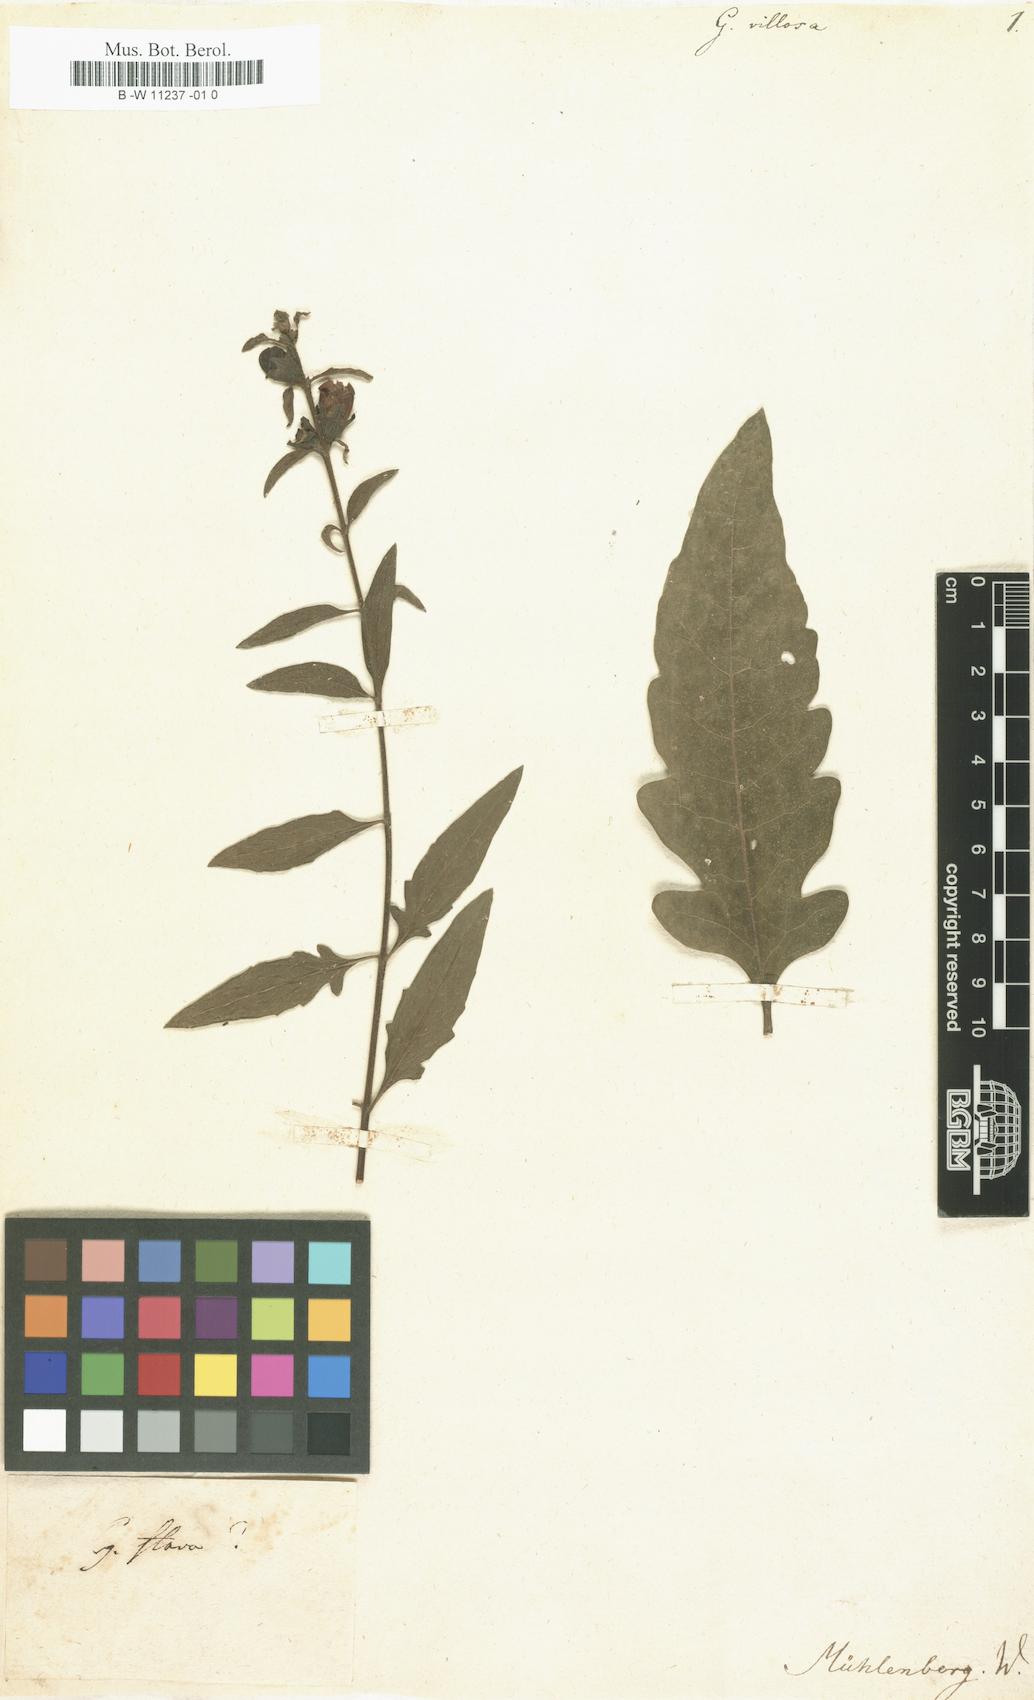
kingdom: Plantae
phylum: Tracheophyta
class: Magnoliopsida
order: Lamiales
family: Orobanchaceae
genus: Aureolaria
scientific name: Aureolaria flava
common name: Smooth false foxglove
